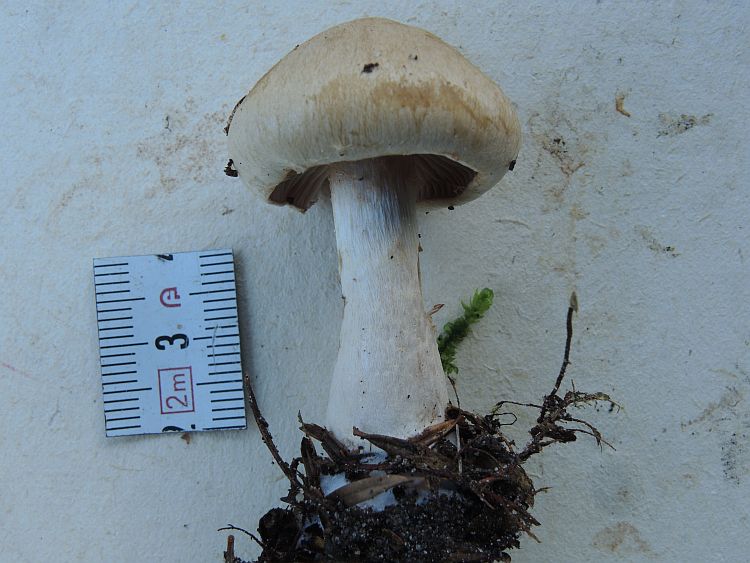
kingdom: Fungi
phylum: Basidiomycota
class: Agaricomycetes
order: Agaricales
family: Cortinariaceae
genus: Cortinarius
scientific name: Cortinarius
